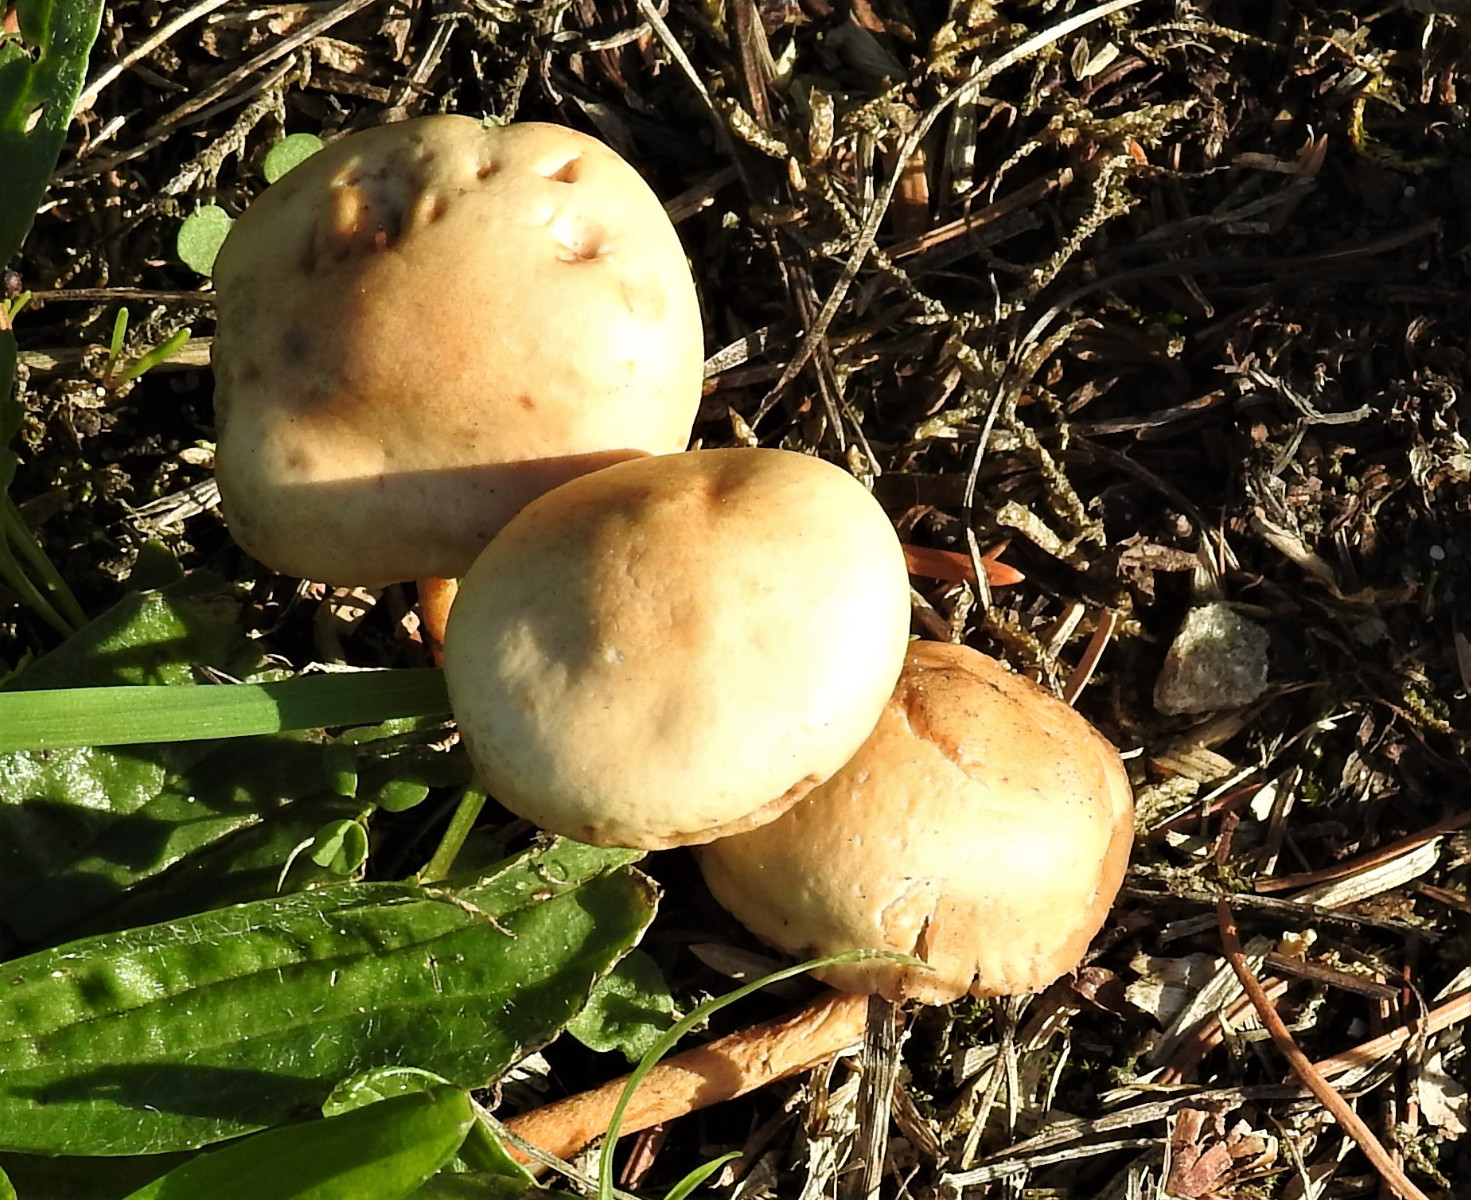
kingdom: Fungi
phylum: Basidiomycota
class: Agaricomycetes
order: Agaricales
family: Marasmiaceae
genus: Marasmius
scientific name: Marasmius oreades
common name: elledans-bruskhat
